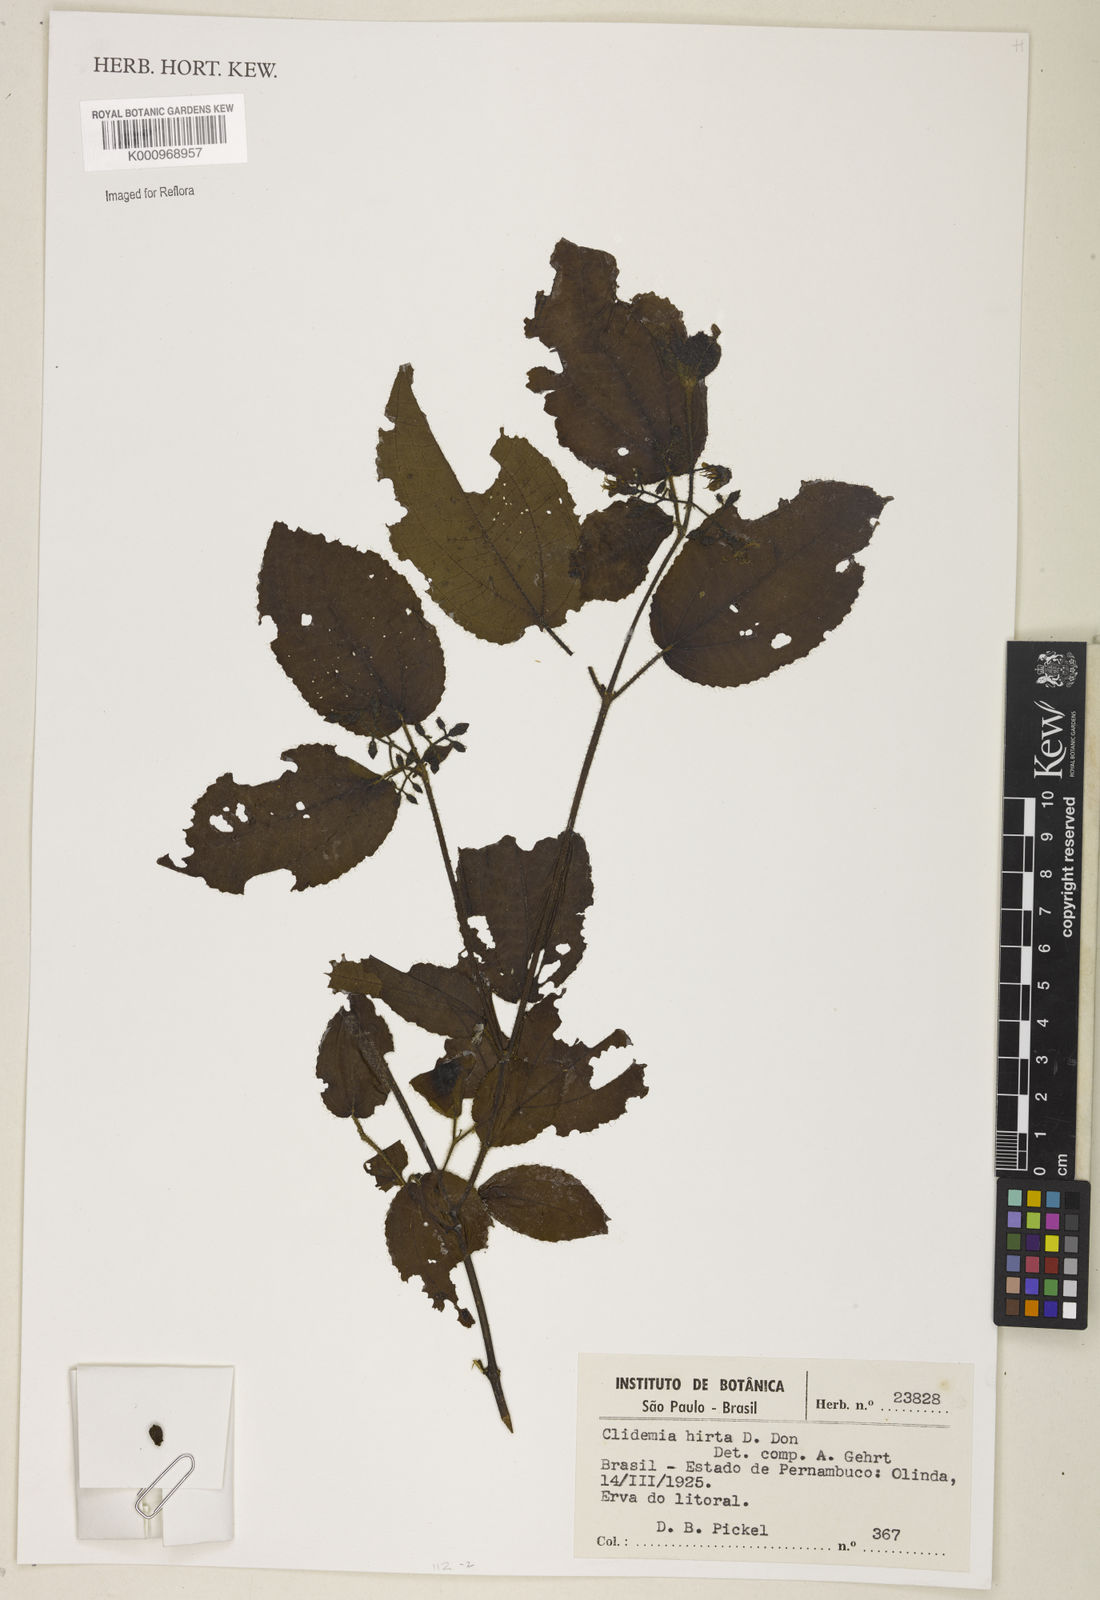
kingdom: Plantae
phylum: Tracheophyta
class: Magnoliopsida
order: Myrtales
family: Melastomataceae
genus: Miconia
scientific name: Miconia crenata
